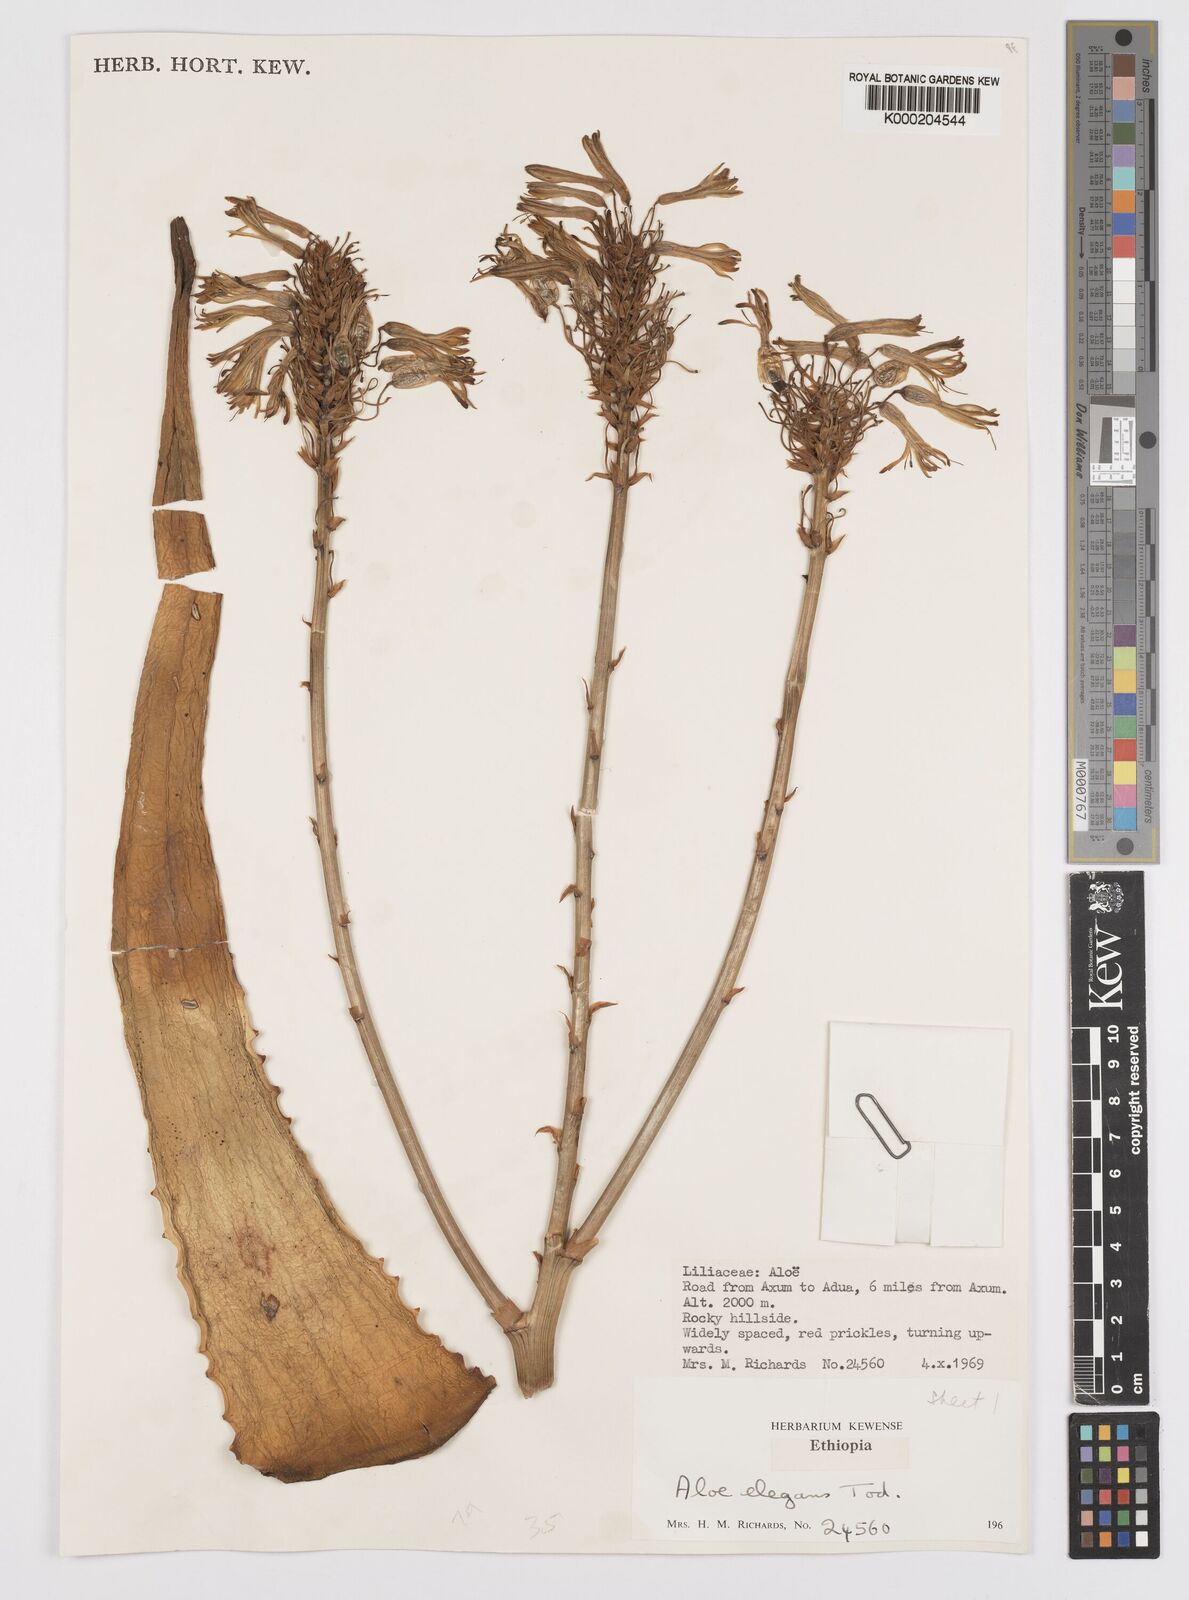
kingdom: Plantae
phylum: Tracheophyta
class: Liliopsida
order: Asparagales
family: Asphodelaceae
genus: Aloe
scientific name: Aloe elegans
